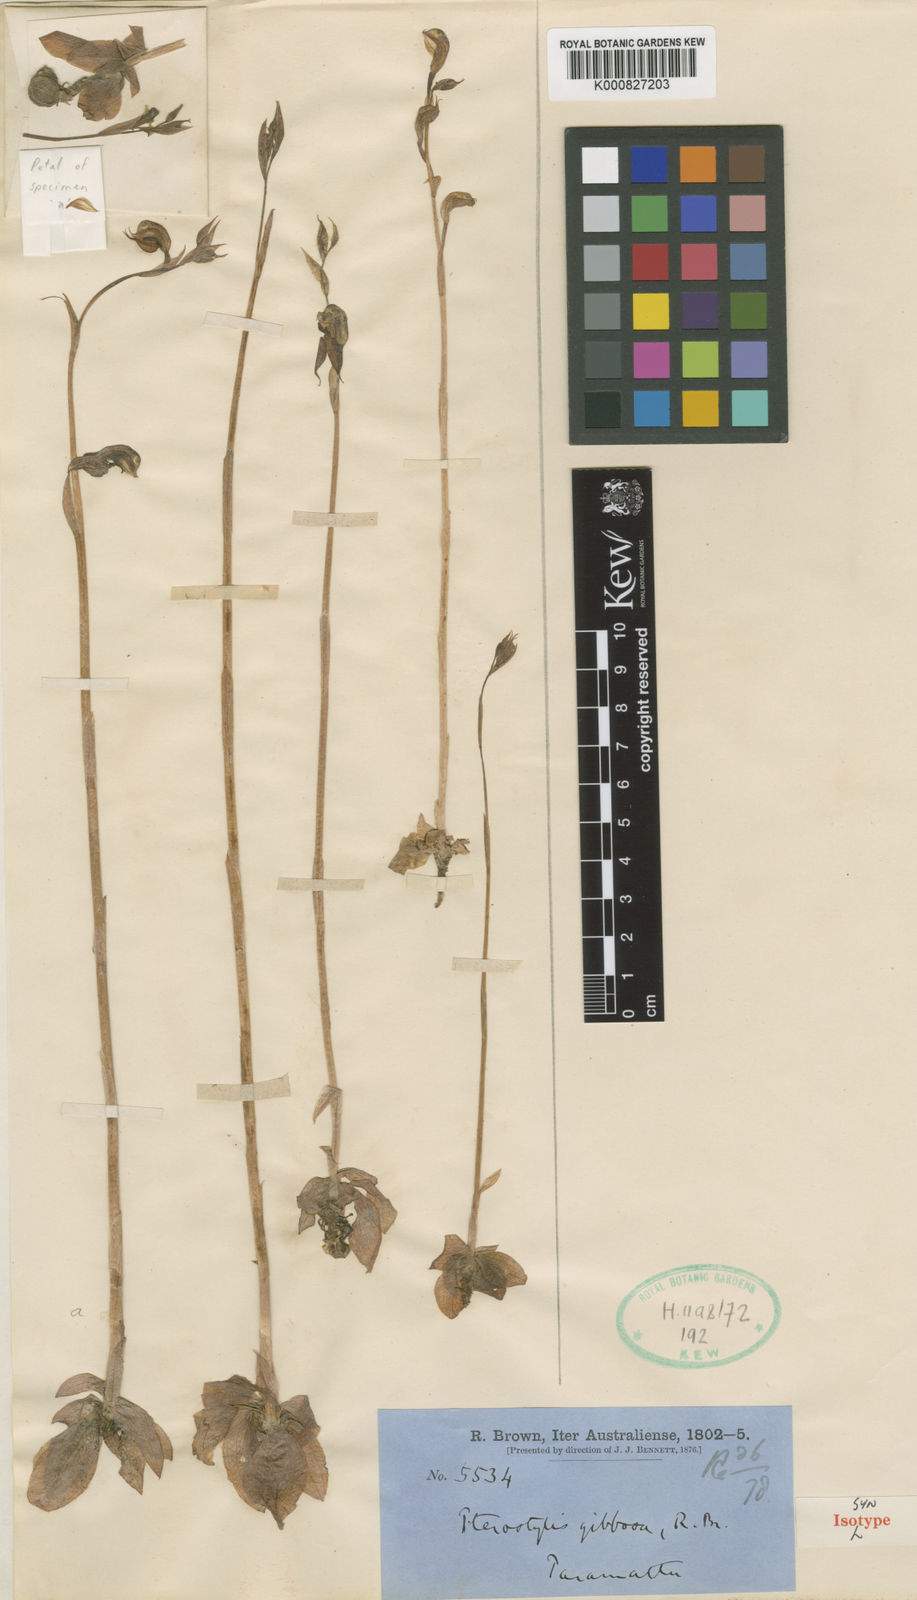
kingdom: Plantae
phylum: Tracheophyta
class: Liliopsida
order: Asparagales
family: Orchidaceae
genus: Pterostylis
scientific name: Pterostylis gibbosa
